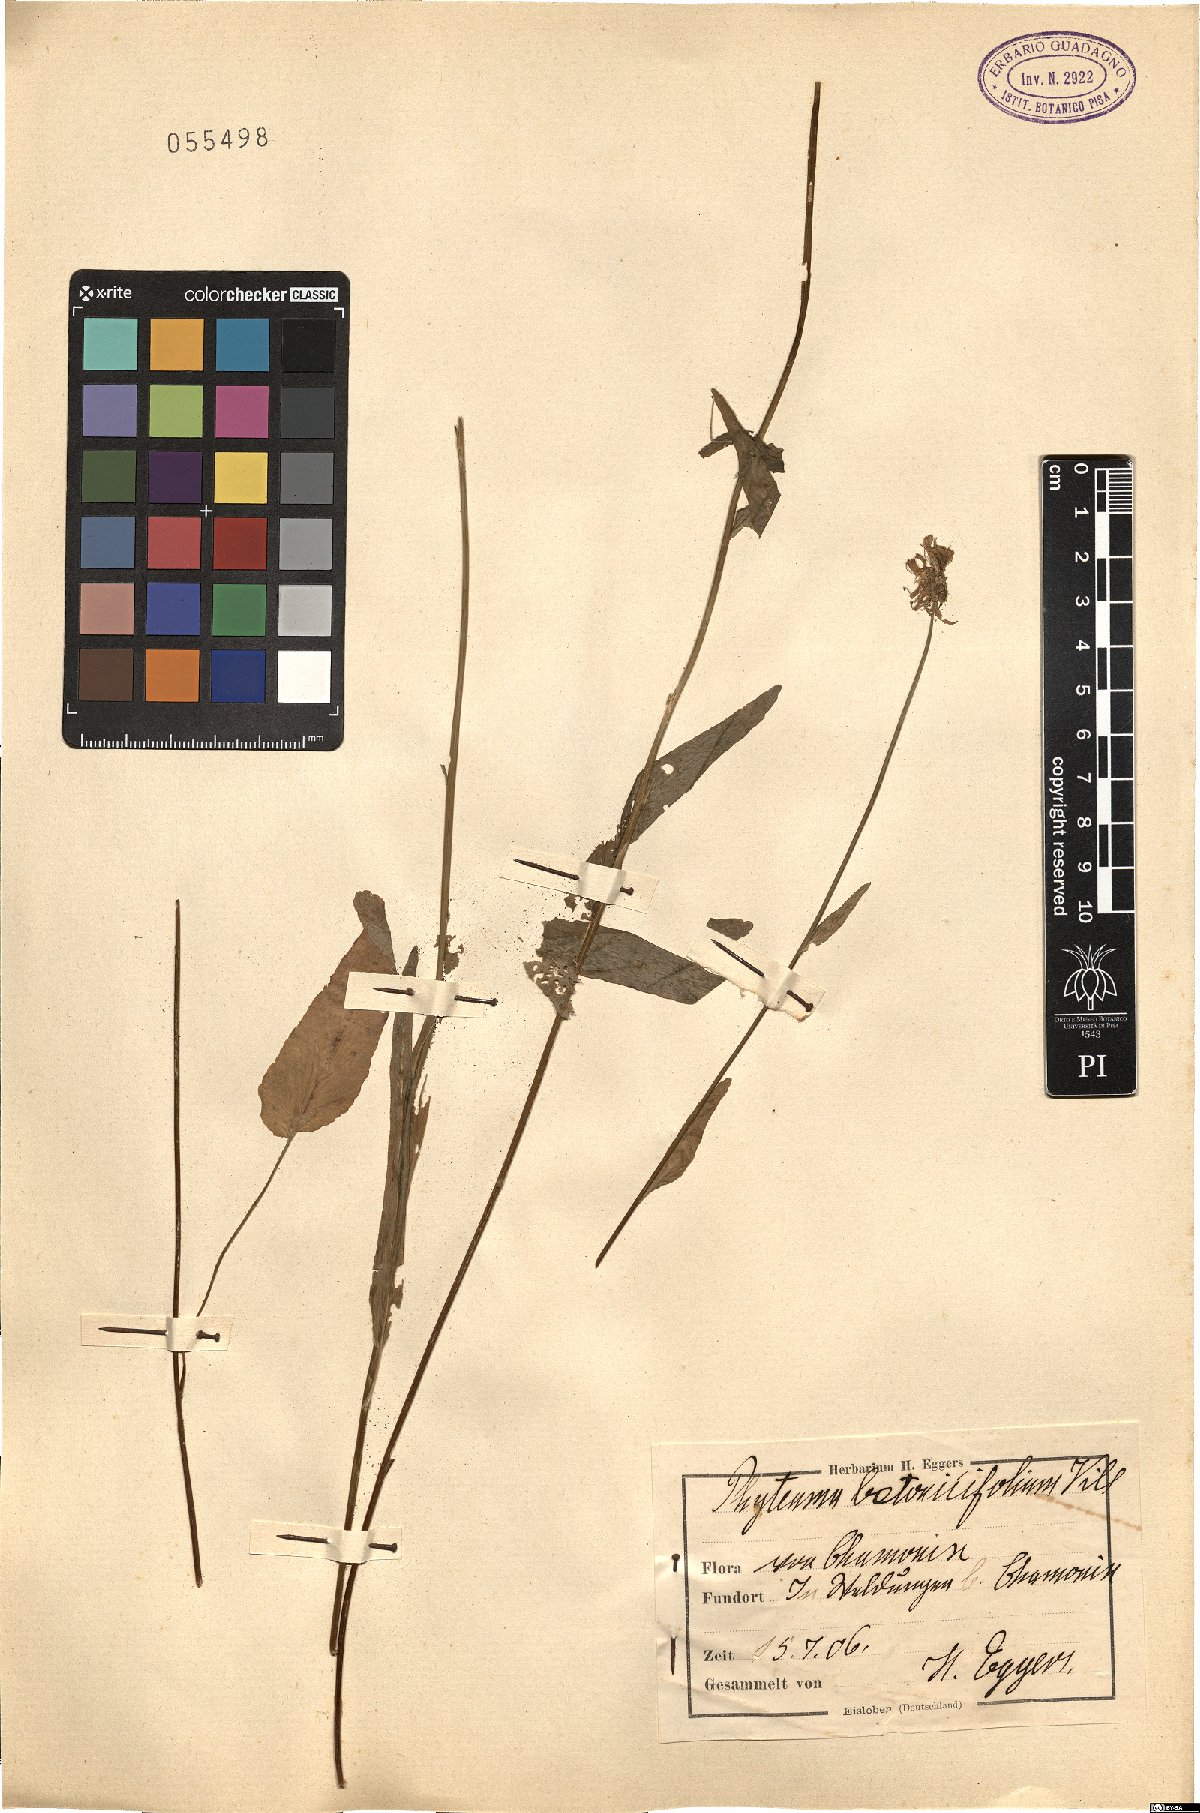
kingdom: Plantae
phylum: Tracheophyta
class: Magnoliopsida
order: Asterales
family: Campanulaceae
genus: Phyteuma
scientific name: Phyteuma betonicifolium
